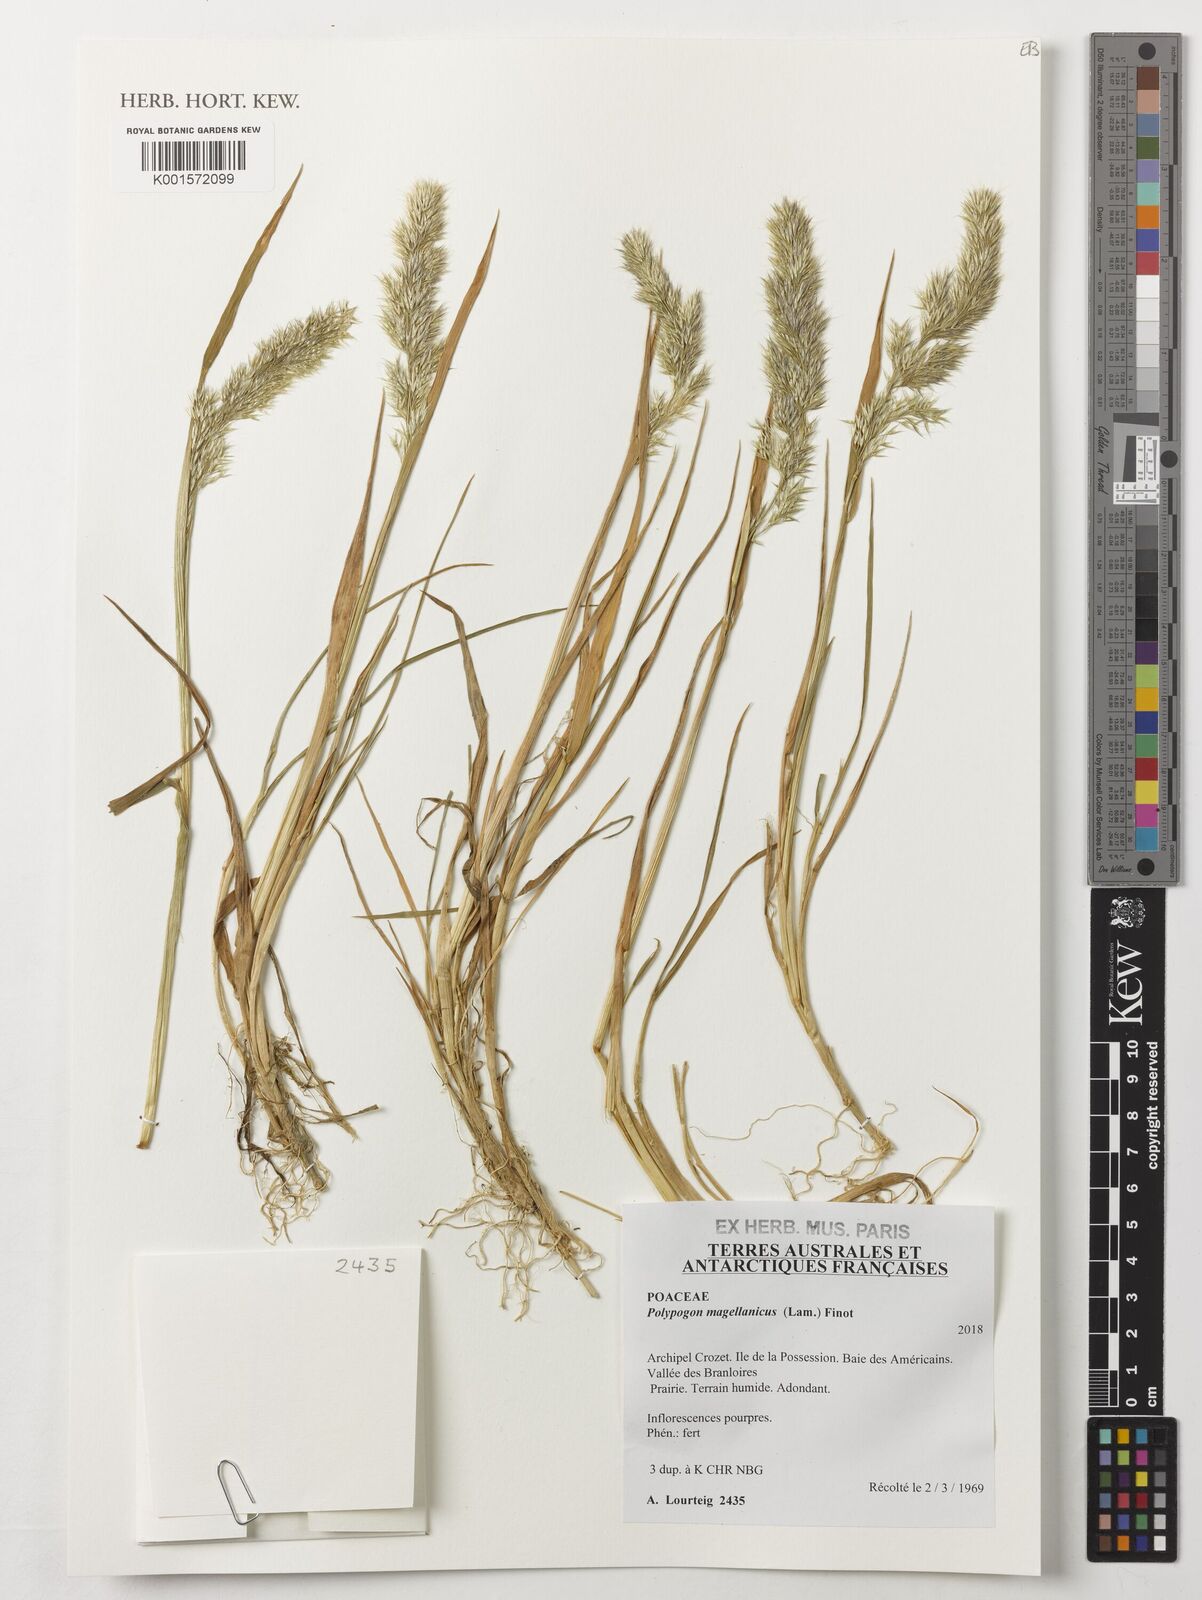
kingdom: Plantae
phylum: Tracheophyta
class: Liliopsida
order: Poales
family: Poaceae
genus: Polypogon
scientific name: Polypogon magellanicus
